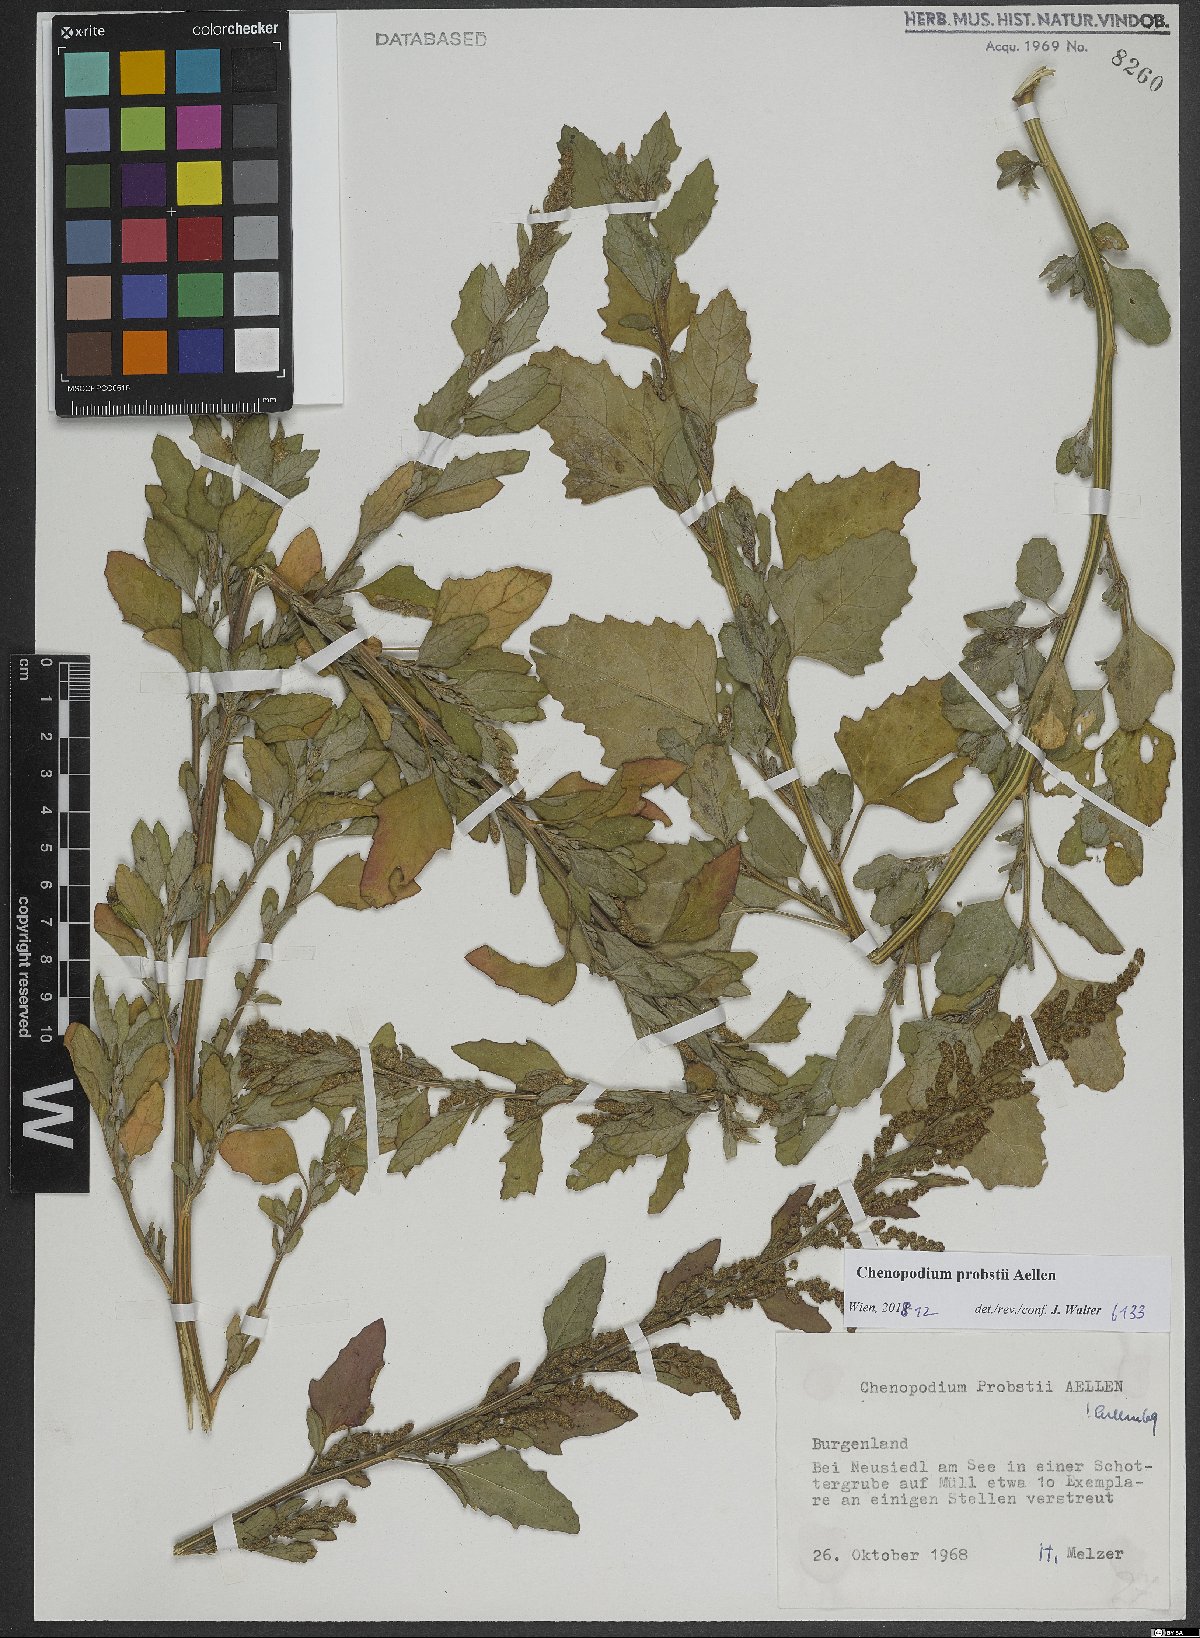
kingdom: Plantae
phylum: Tracheophyta
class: Magnoliopsida
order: Caryophyllales
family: Amaranthaceae
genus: Chenopodium
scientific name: Chenopodium probstii
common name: Probst's goosefoot
